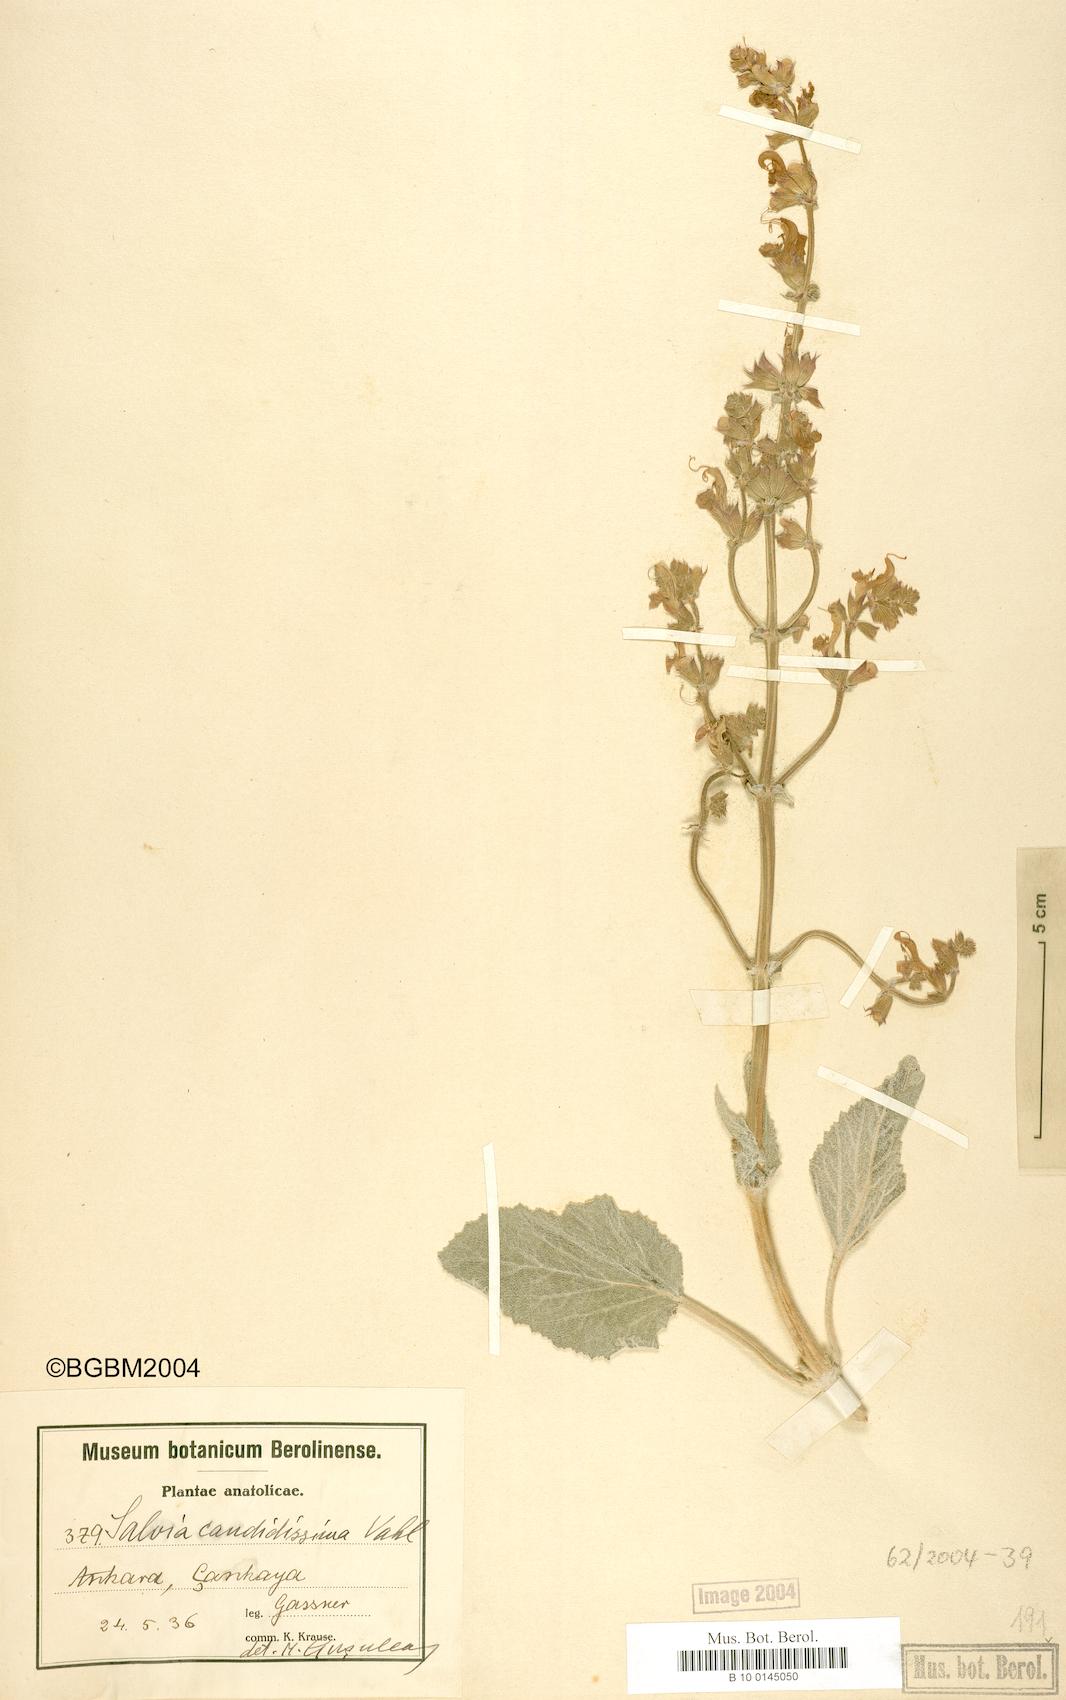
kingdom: Plantae
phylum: Tracheophyta
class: Magnoliopsida
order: Lamiales
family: Lamiaceae
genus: Salvia
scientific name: Salvia candidissima
